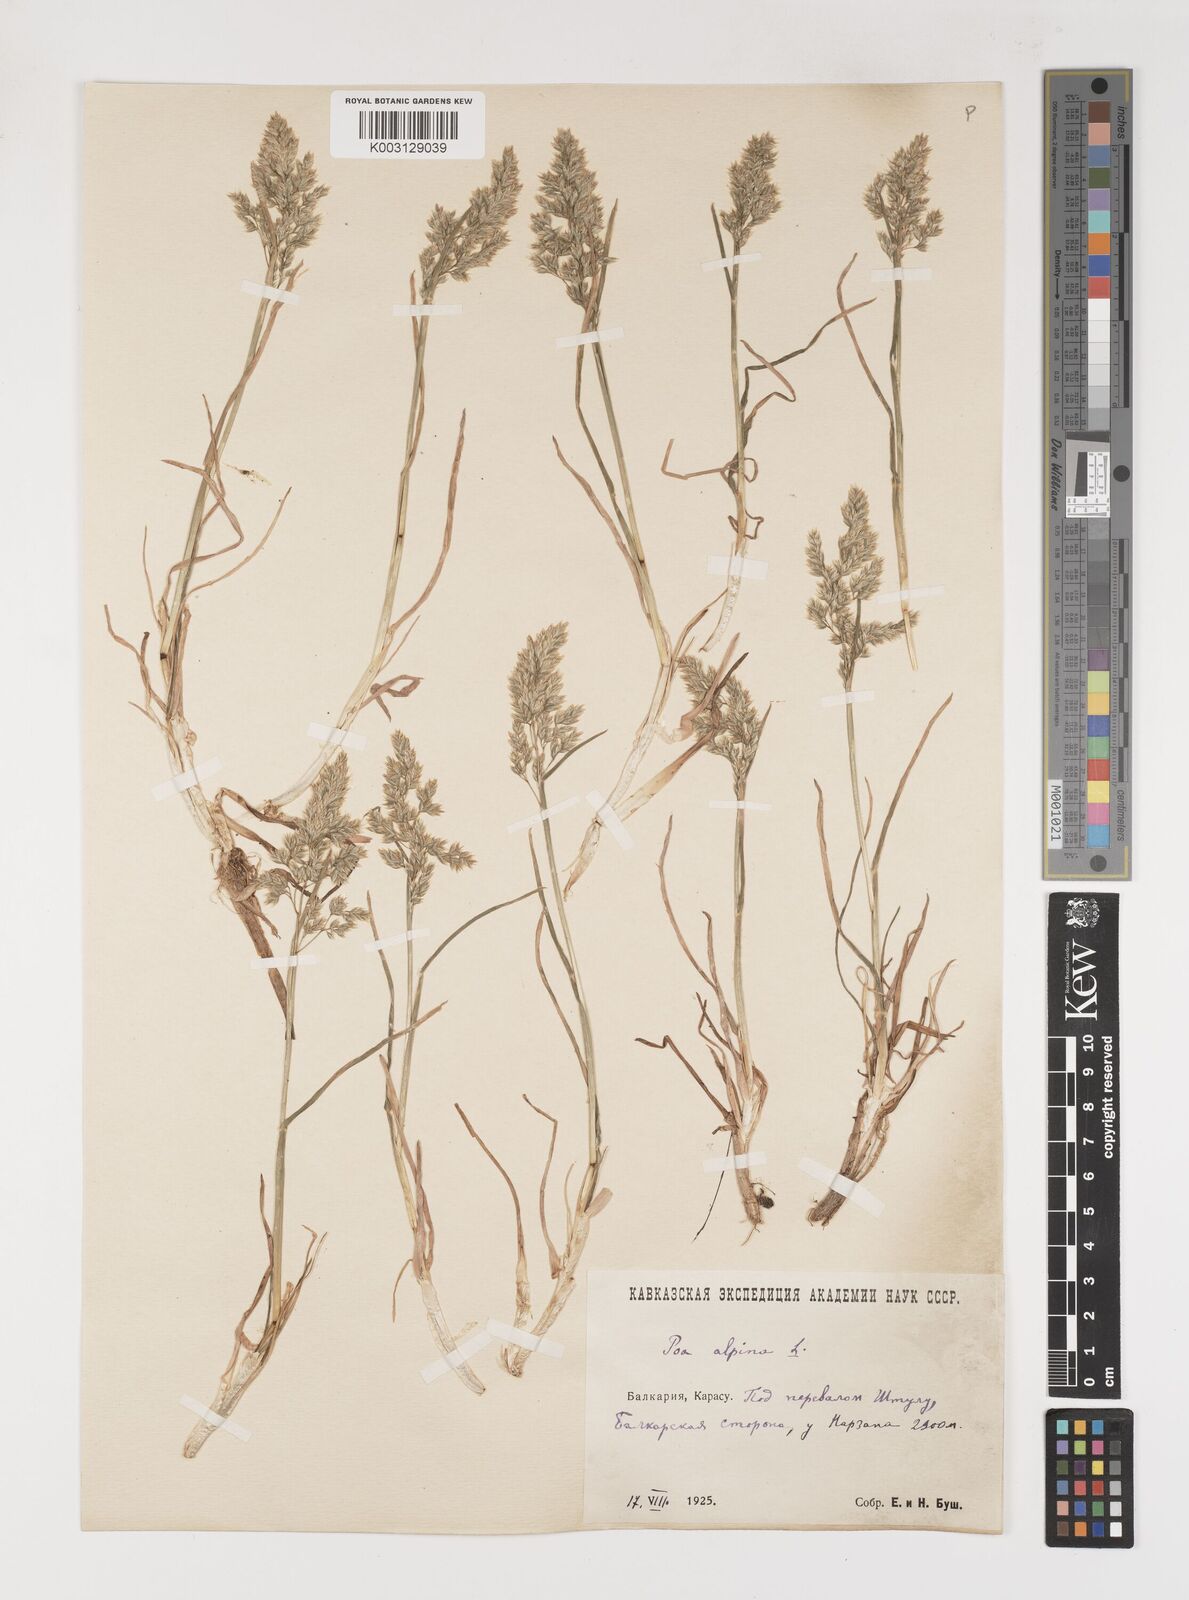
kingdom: Plantae
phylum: Tracheophyta
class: Liliopsida
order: Poales
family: Poaceae
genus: Poa
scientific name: Poa alpina
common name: Alpine bluegrass
